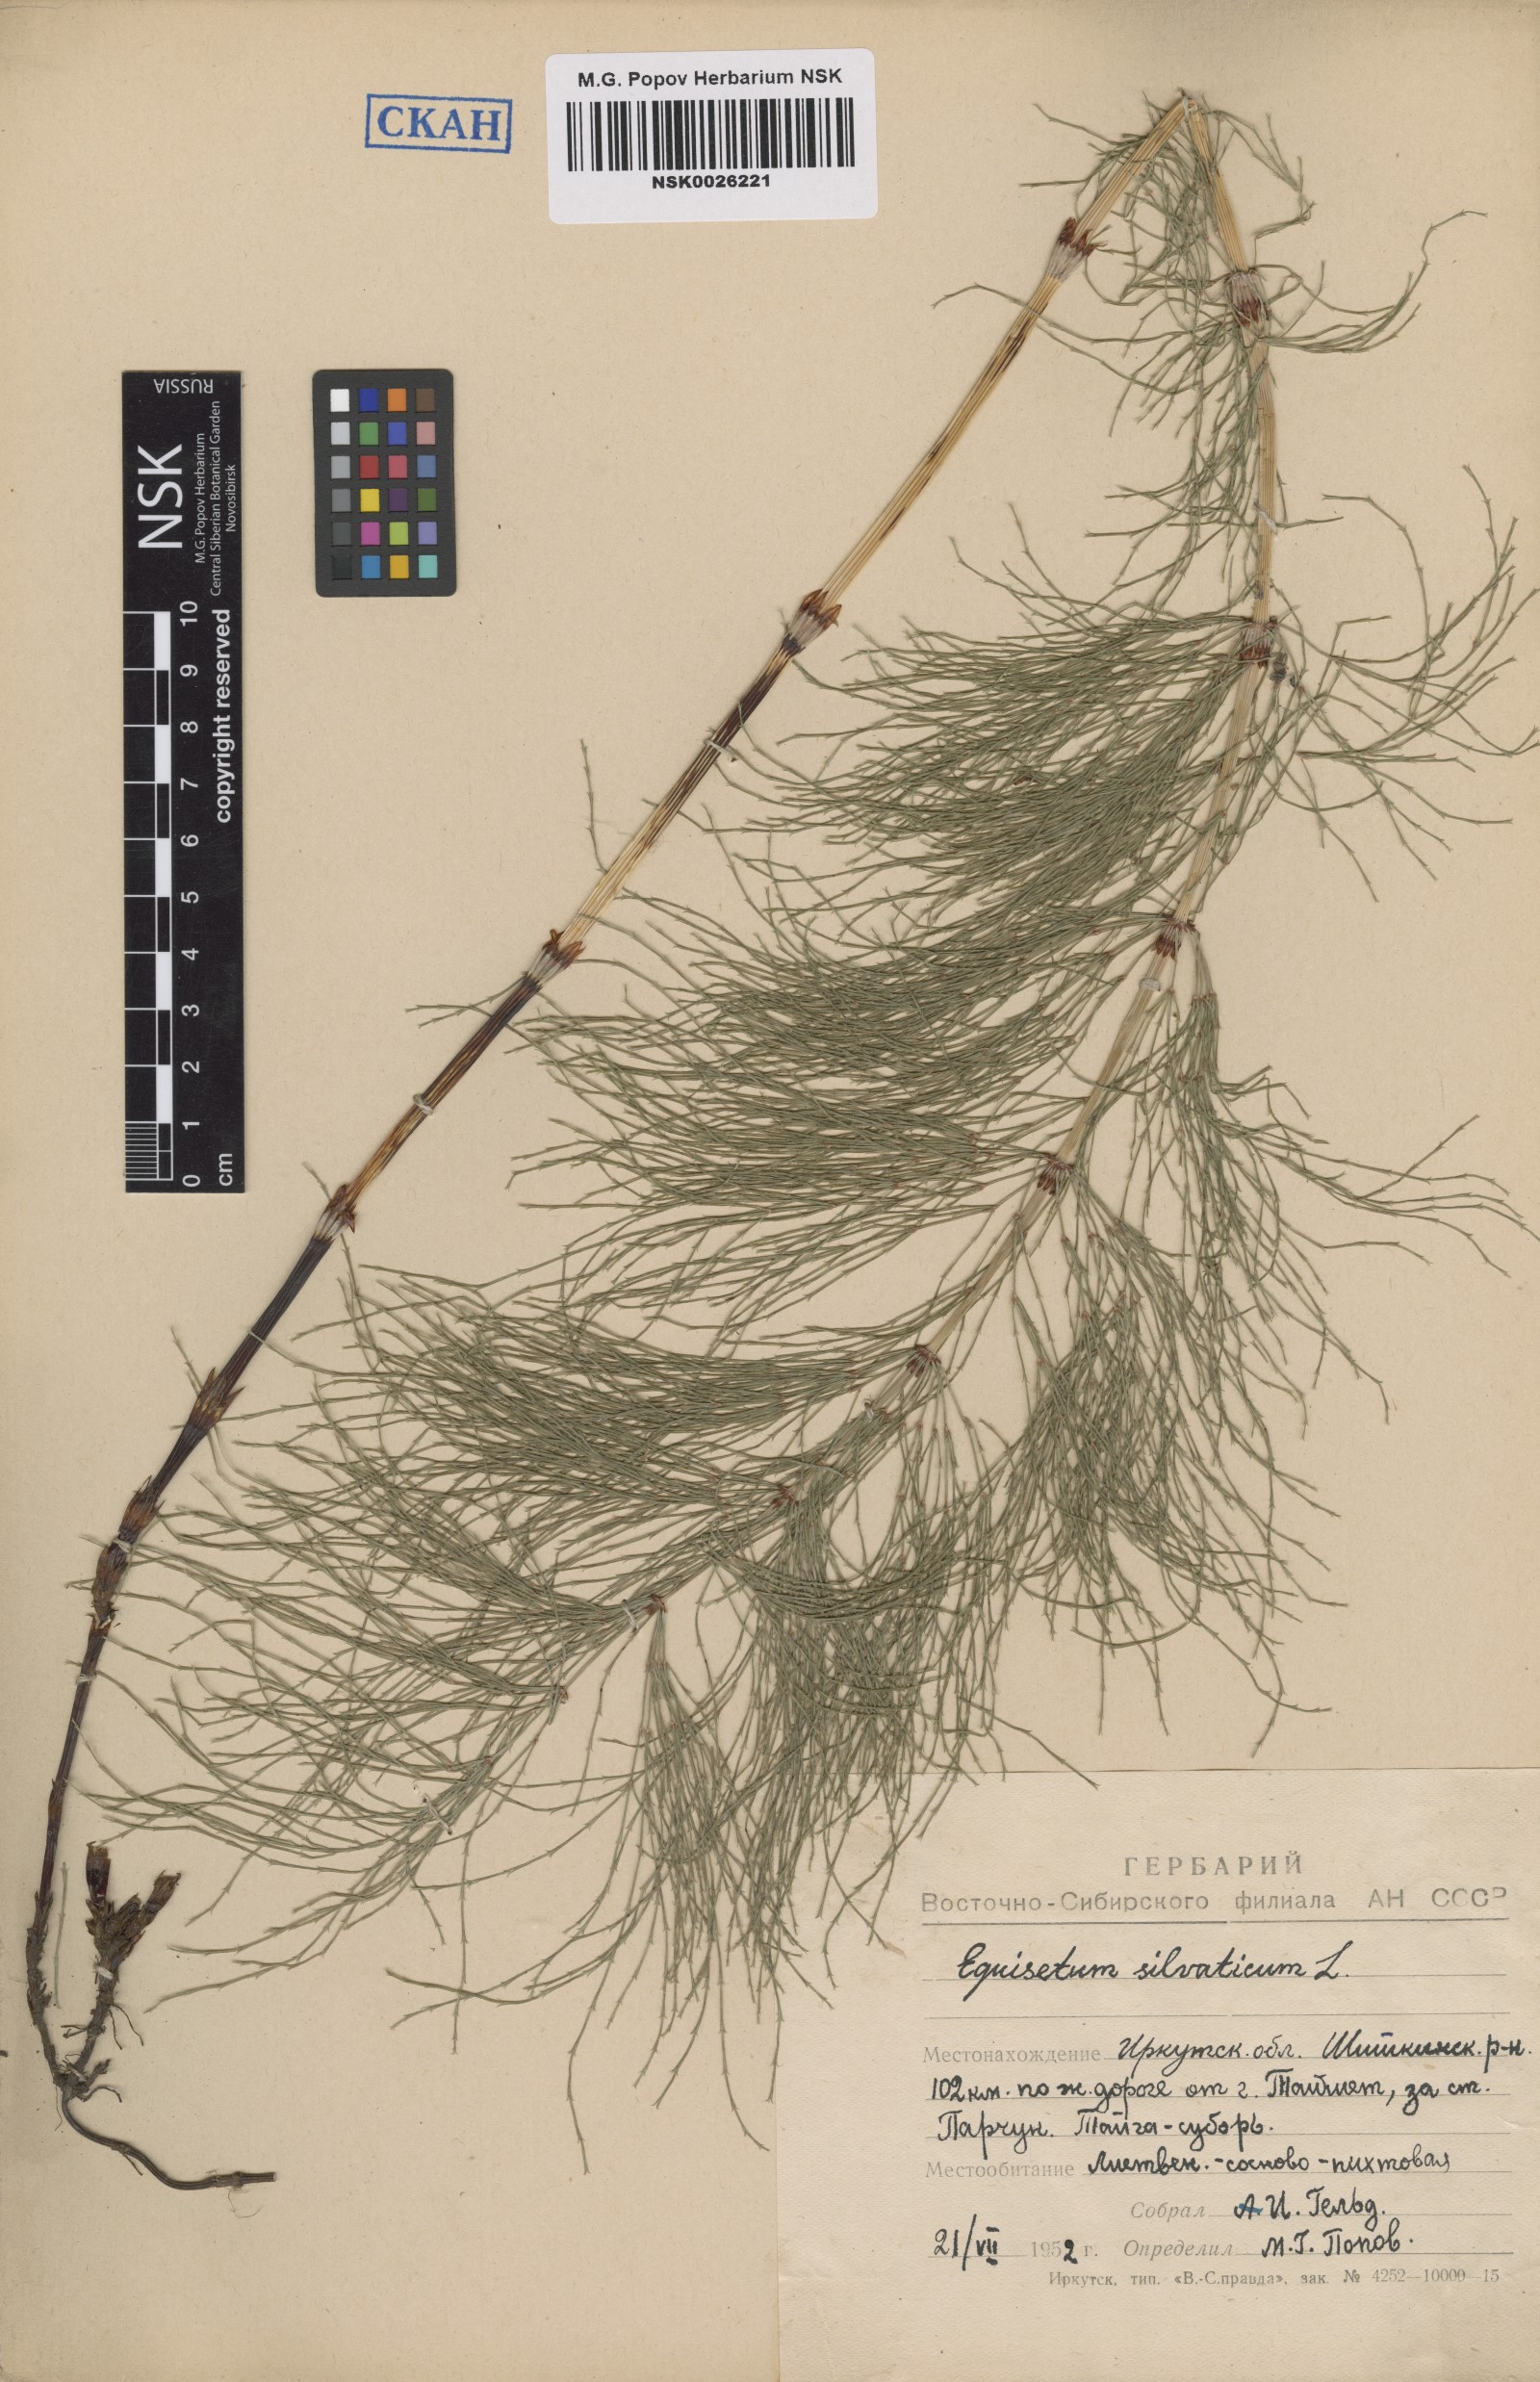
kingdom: Plantae
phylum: Tracheophyta
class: Polypodiopsida
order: Equisetales
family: Equisetaceae
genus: Equisetum
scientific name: Equisetum sylvaticum
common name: Wood horsetail
